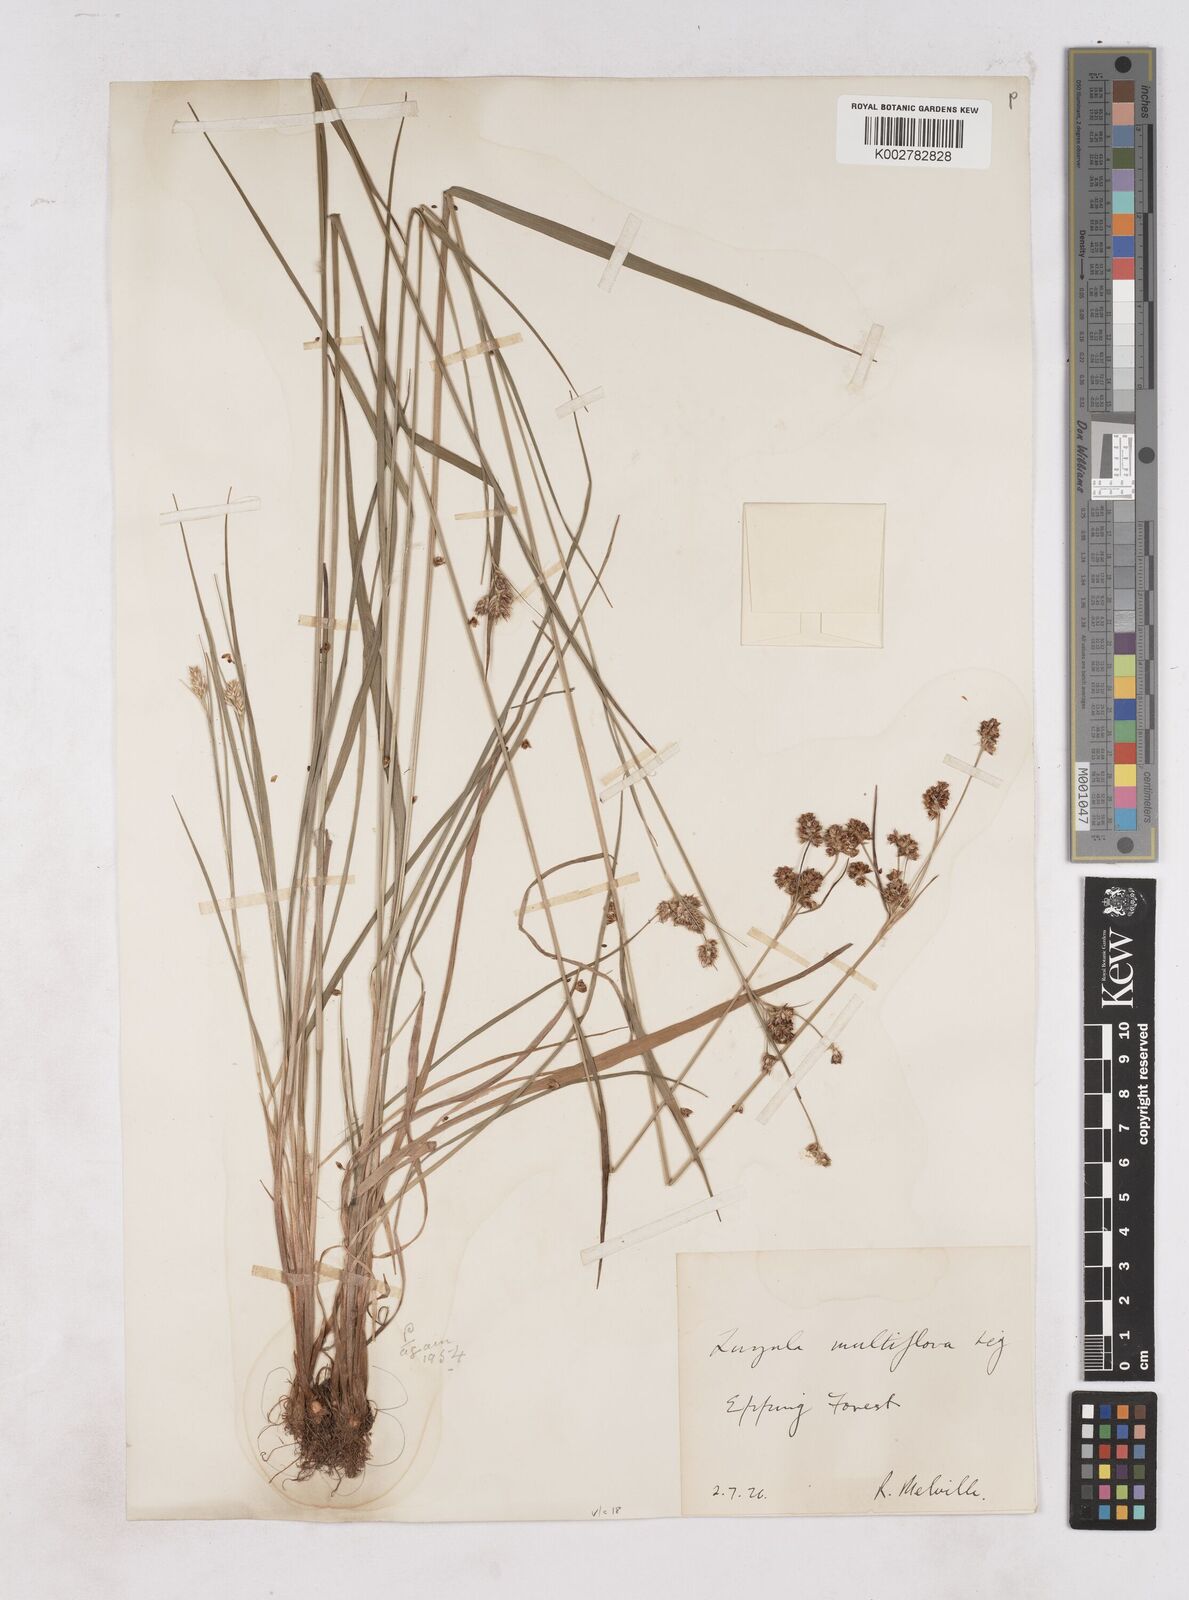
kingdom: Plantae
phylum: Tracheophyta
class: Liliopsida
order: Poales
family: Juncaceae
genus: Luzula
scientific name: Luzula campestris
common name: Field wood-rush
